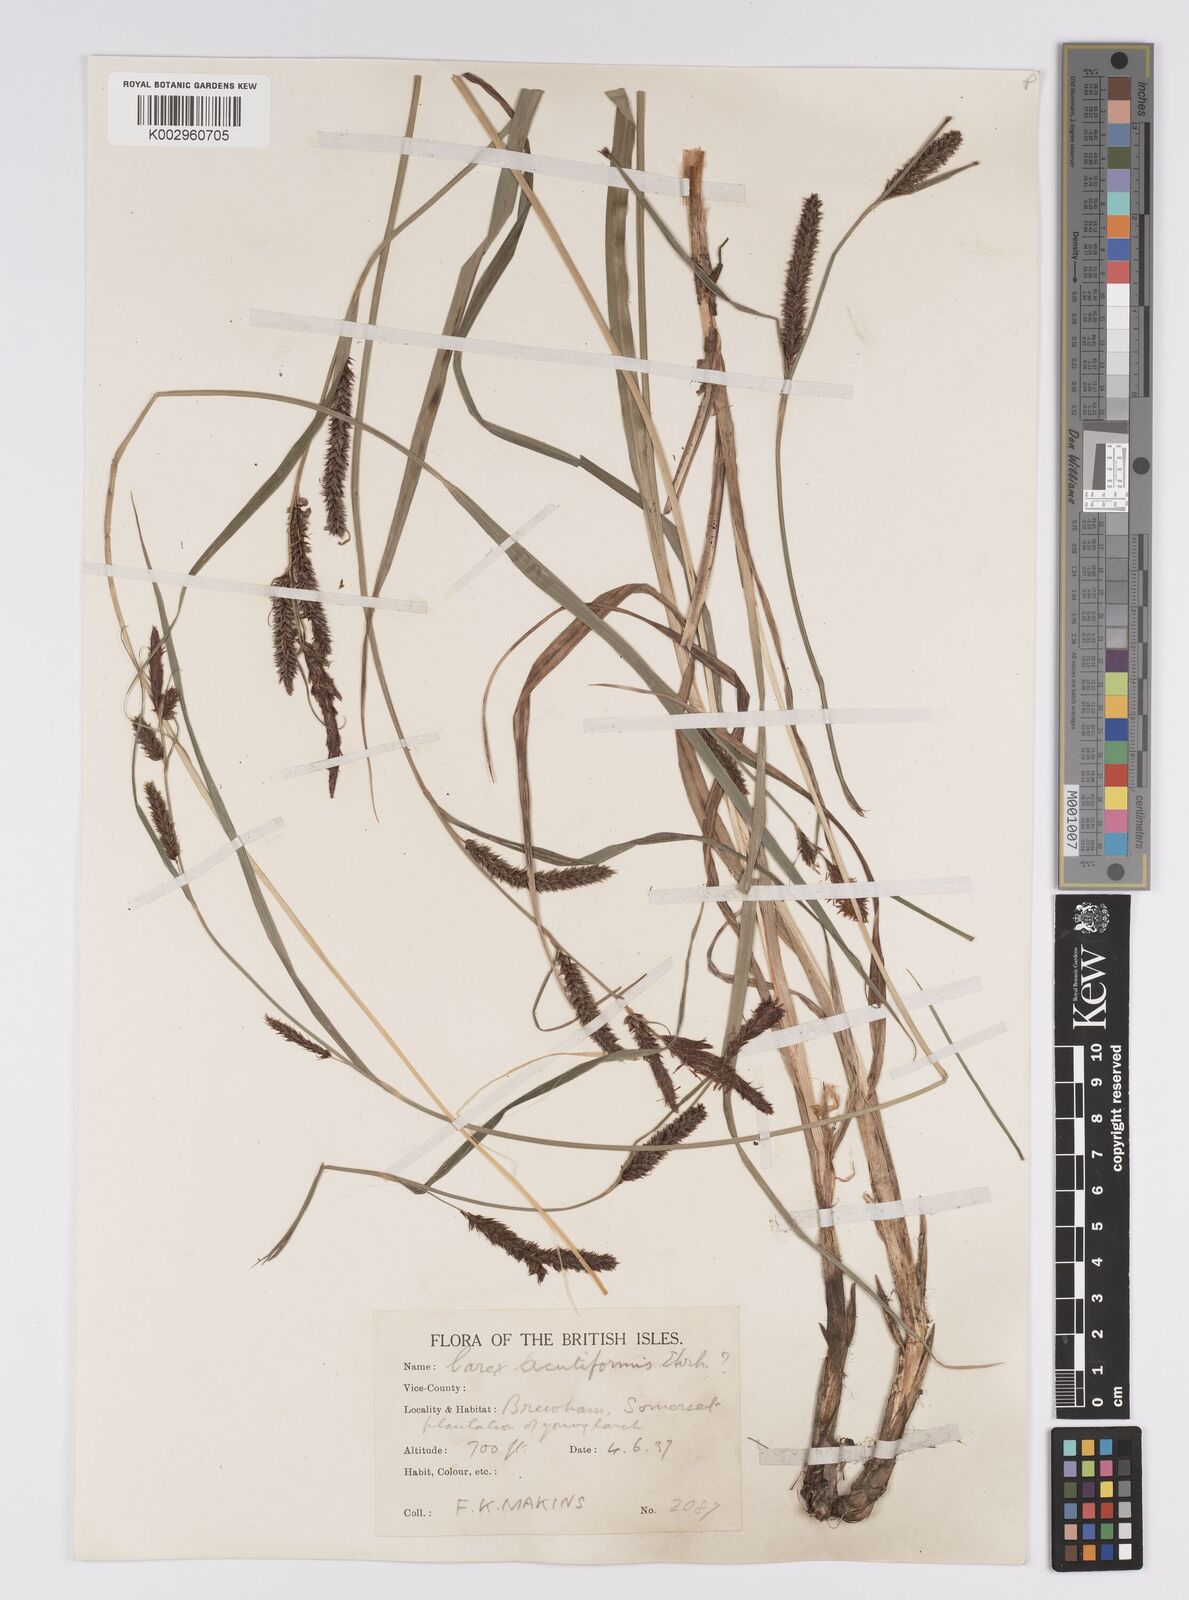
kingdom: Plantae
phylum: Tracheophyta
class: Liliopsida
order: Poales
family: Cyperaceae
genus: Carex
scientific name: Carex acutiformis
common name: Lesser pond-sedge
